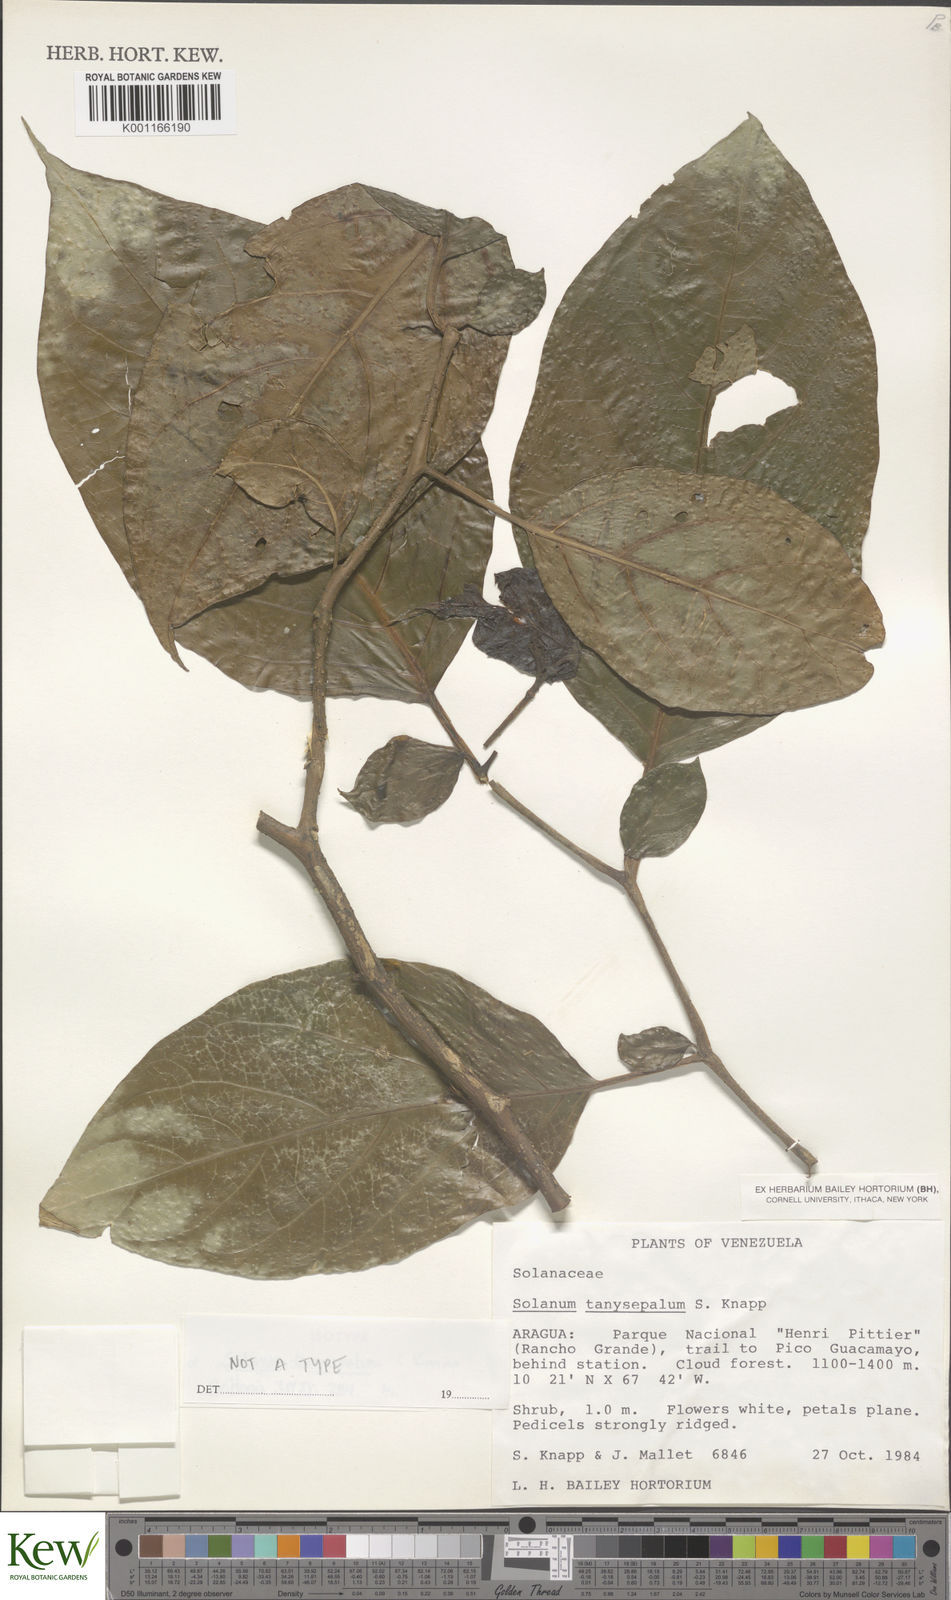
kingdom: Plantae
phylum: Tracheophyta
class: Magnoliopsida
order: Solanales
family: Solanaceae
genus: Solanum
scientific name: Solanum tanysepalum
